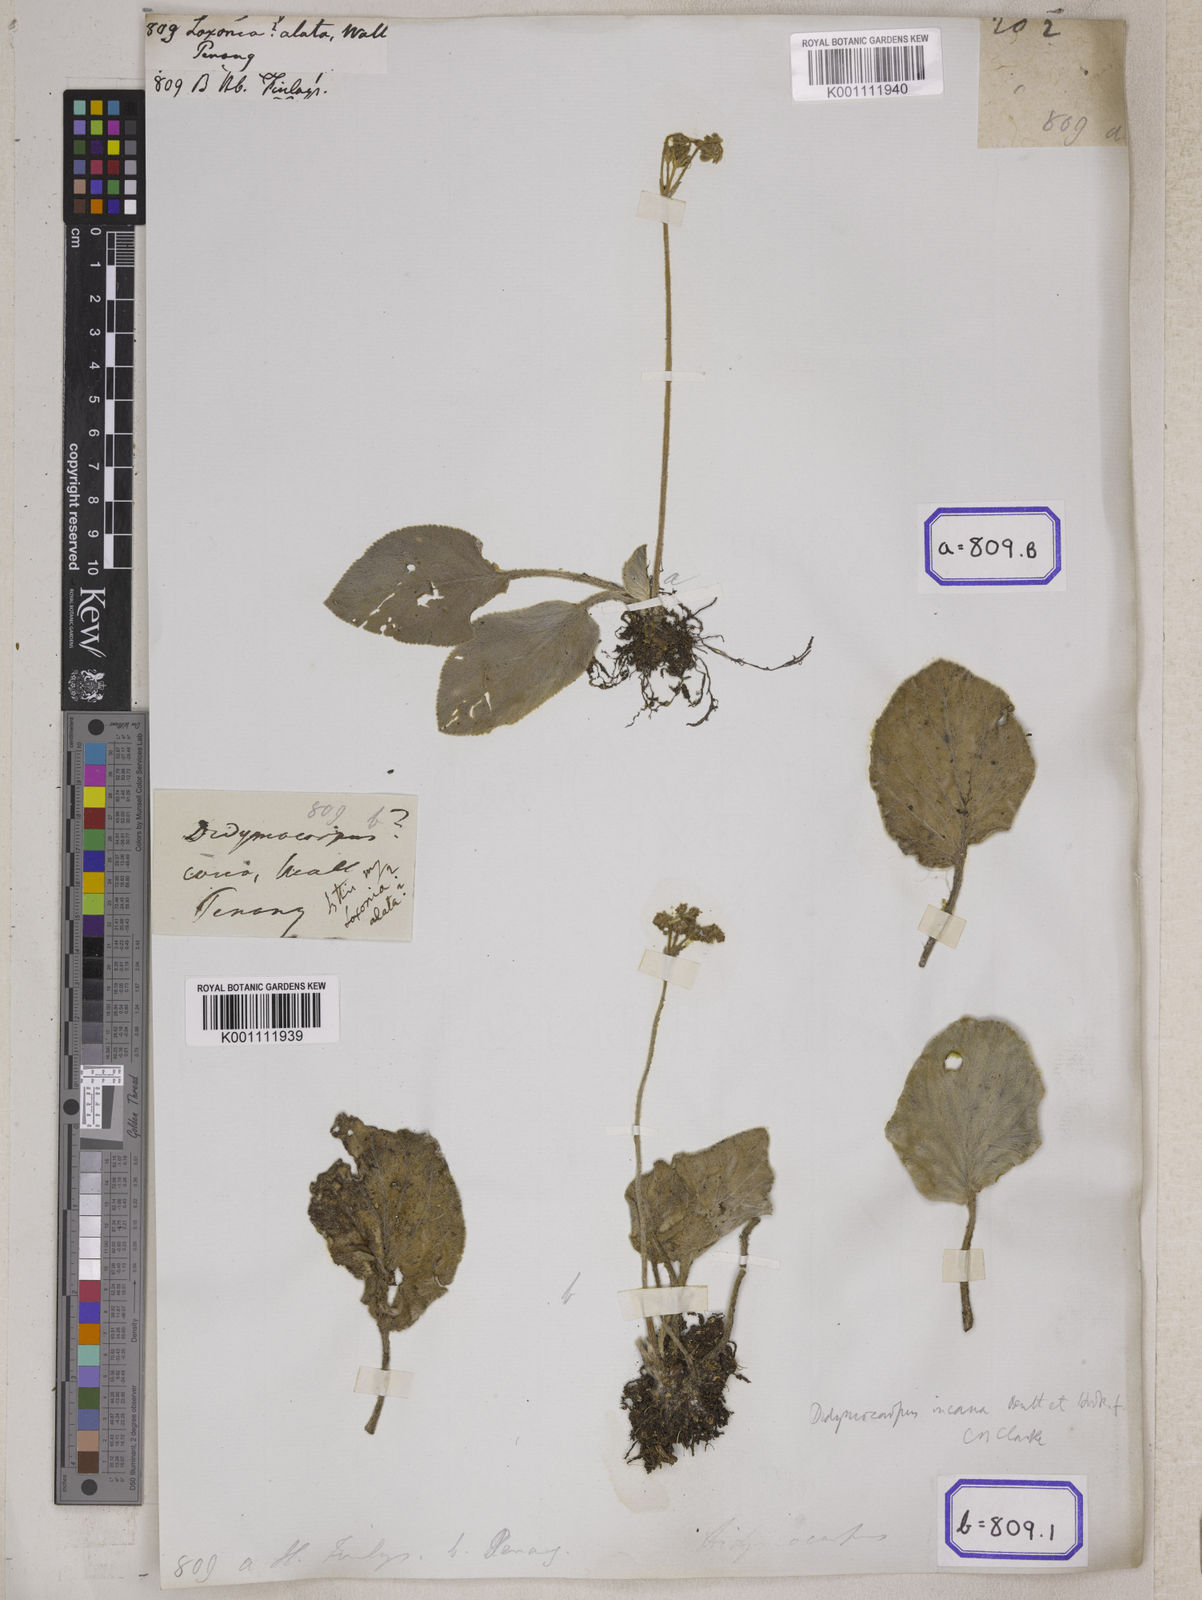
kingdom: Plantae
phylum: Tracheophyta
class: Magnoliopsida
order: Lamiales
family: Gesneriaceae
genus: Loxocarpus
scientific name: Loxocarpus incanus
